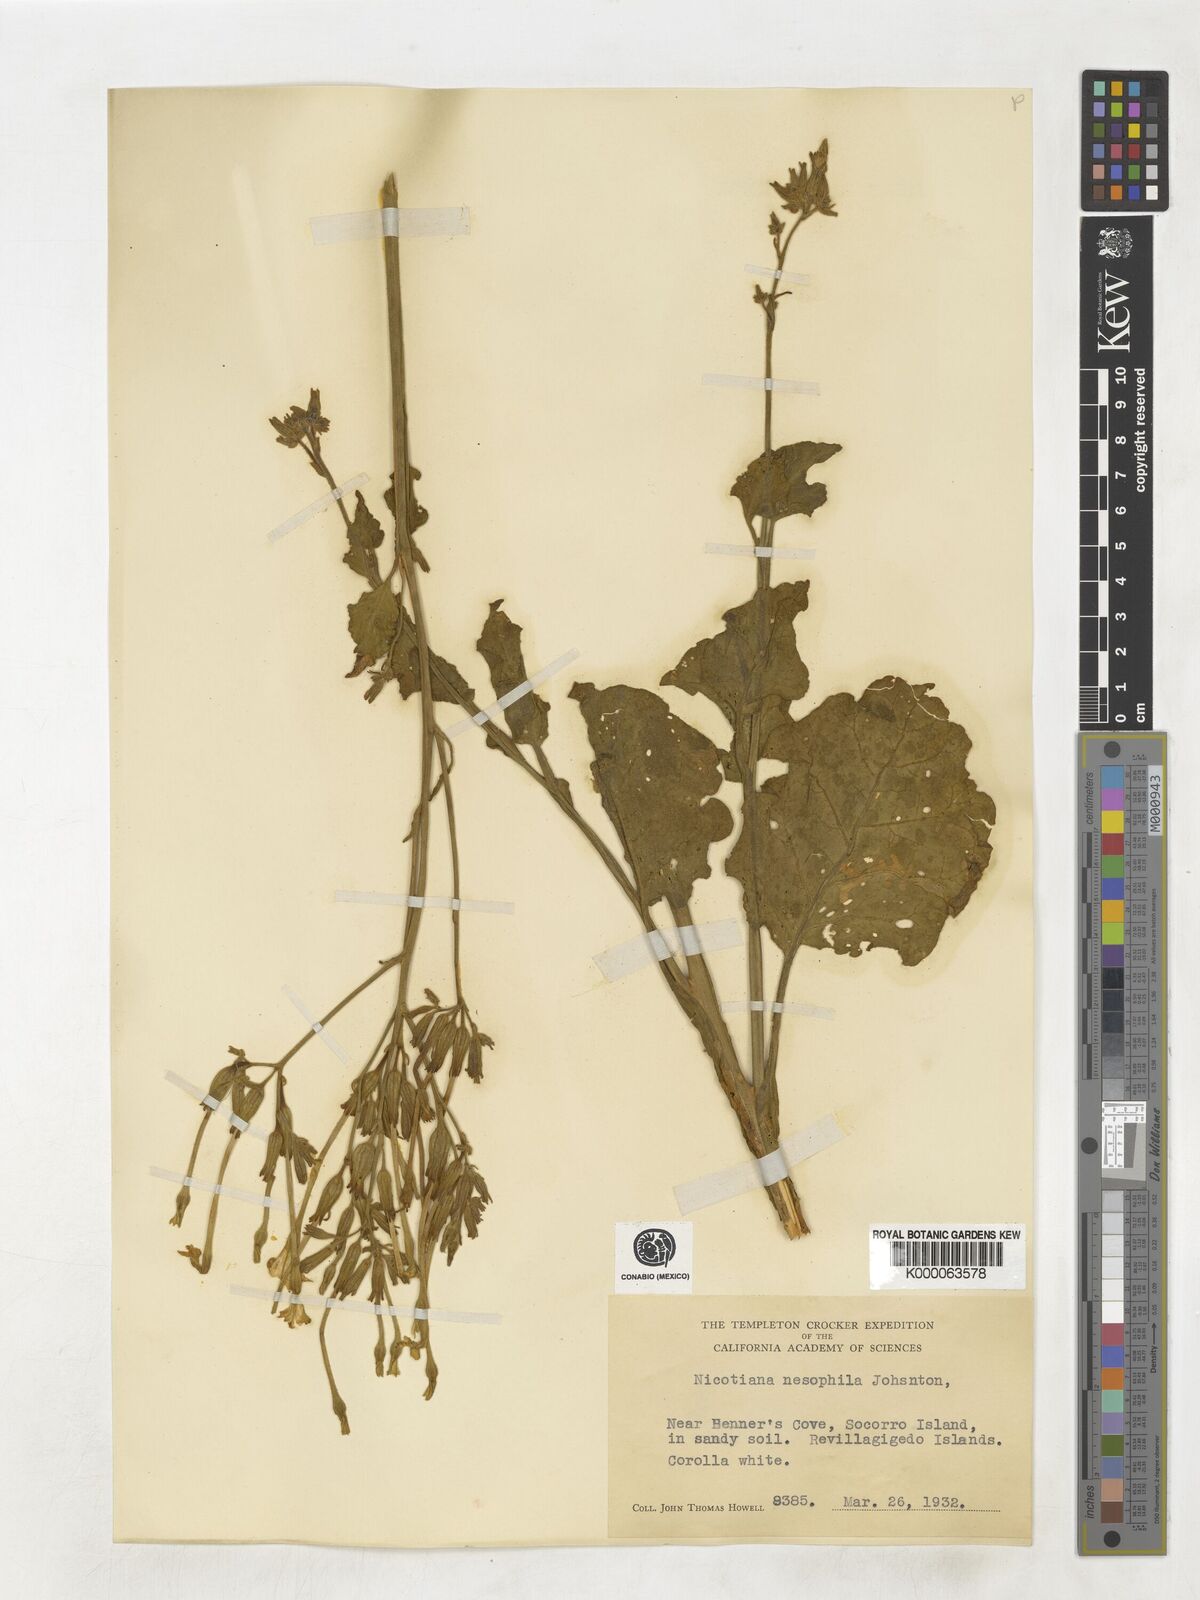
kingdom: Plantae
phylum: Tracheophyta
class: Magnoliopsida
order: Solanales
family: Solanaceae
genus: Nicotiana
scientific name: Nicotiana stocktonii
